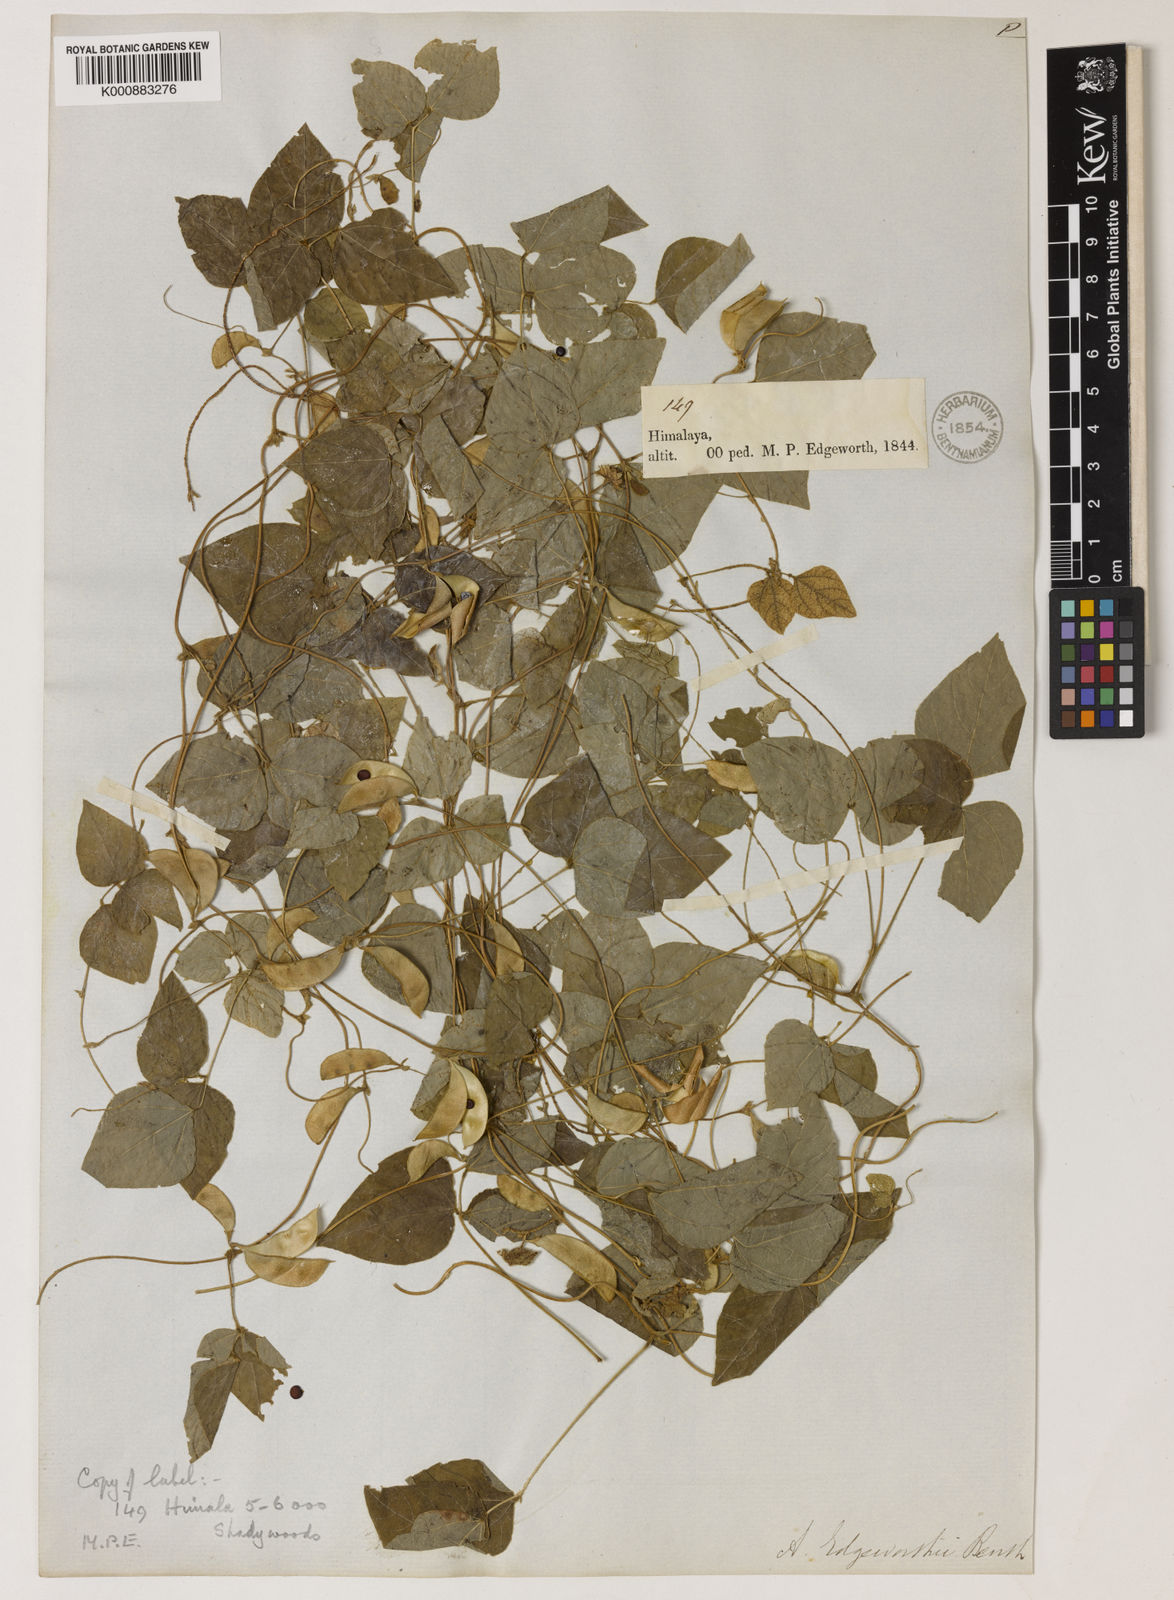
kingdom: Plantae
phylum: Tracheophyta
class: Magnoliopsida
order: Fabales
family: Fabaceae
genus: Amphicarpaea
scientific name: Amphicarpaea edgeworthii
